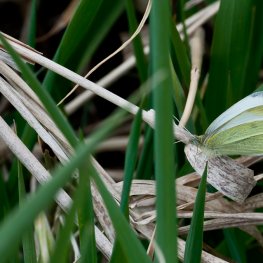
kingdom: Animalia
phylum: Arthropoda
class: Insecta
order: Lepidoptera
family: Pieridae
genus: Pieris
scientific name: Pieris rapae
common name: Cabbage White
